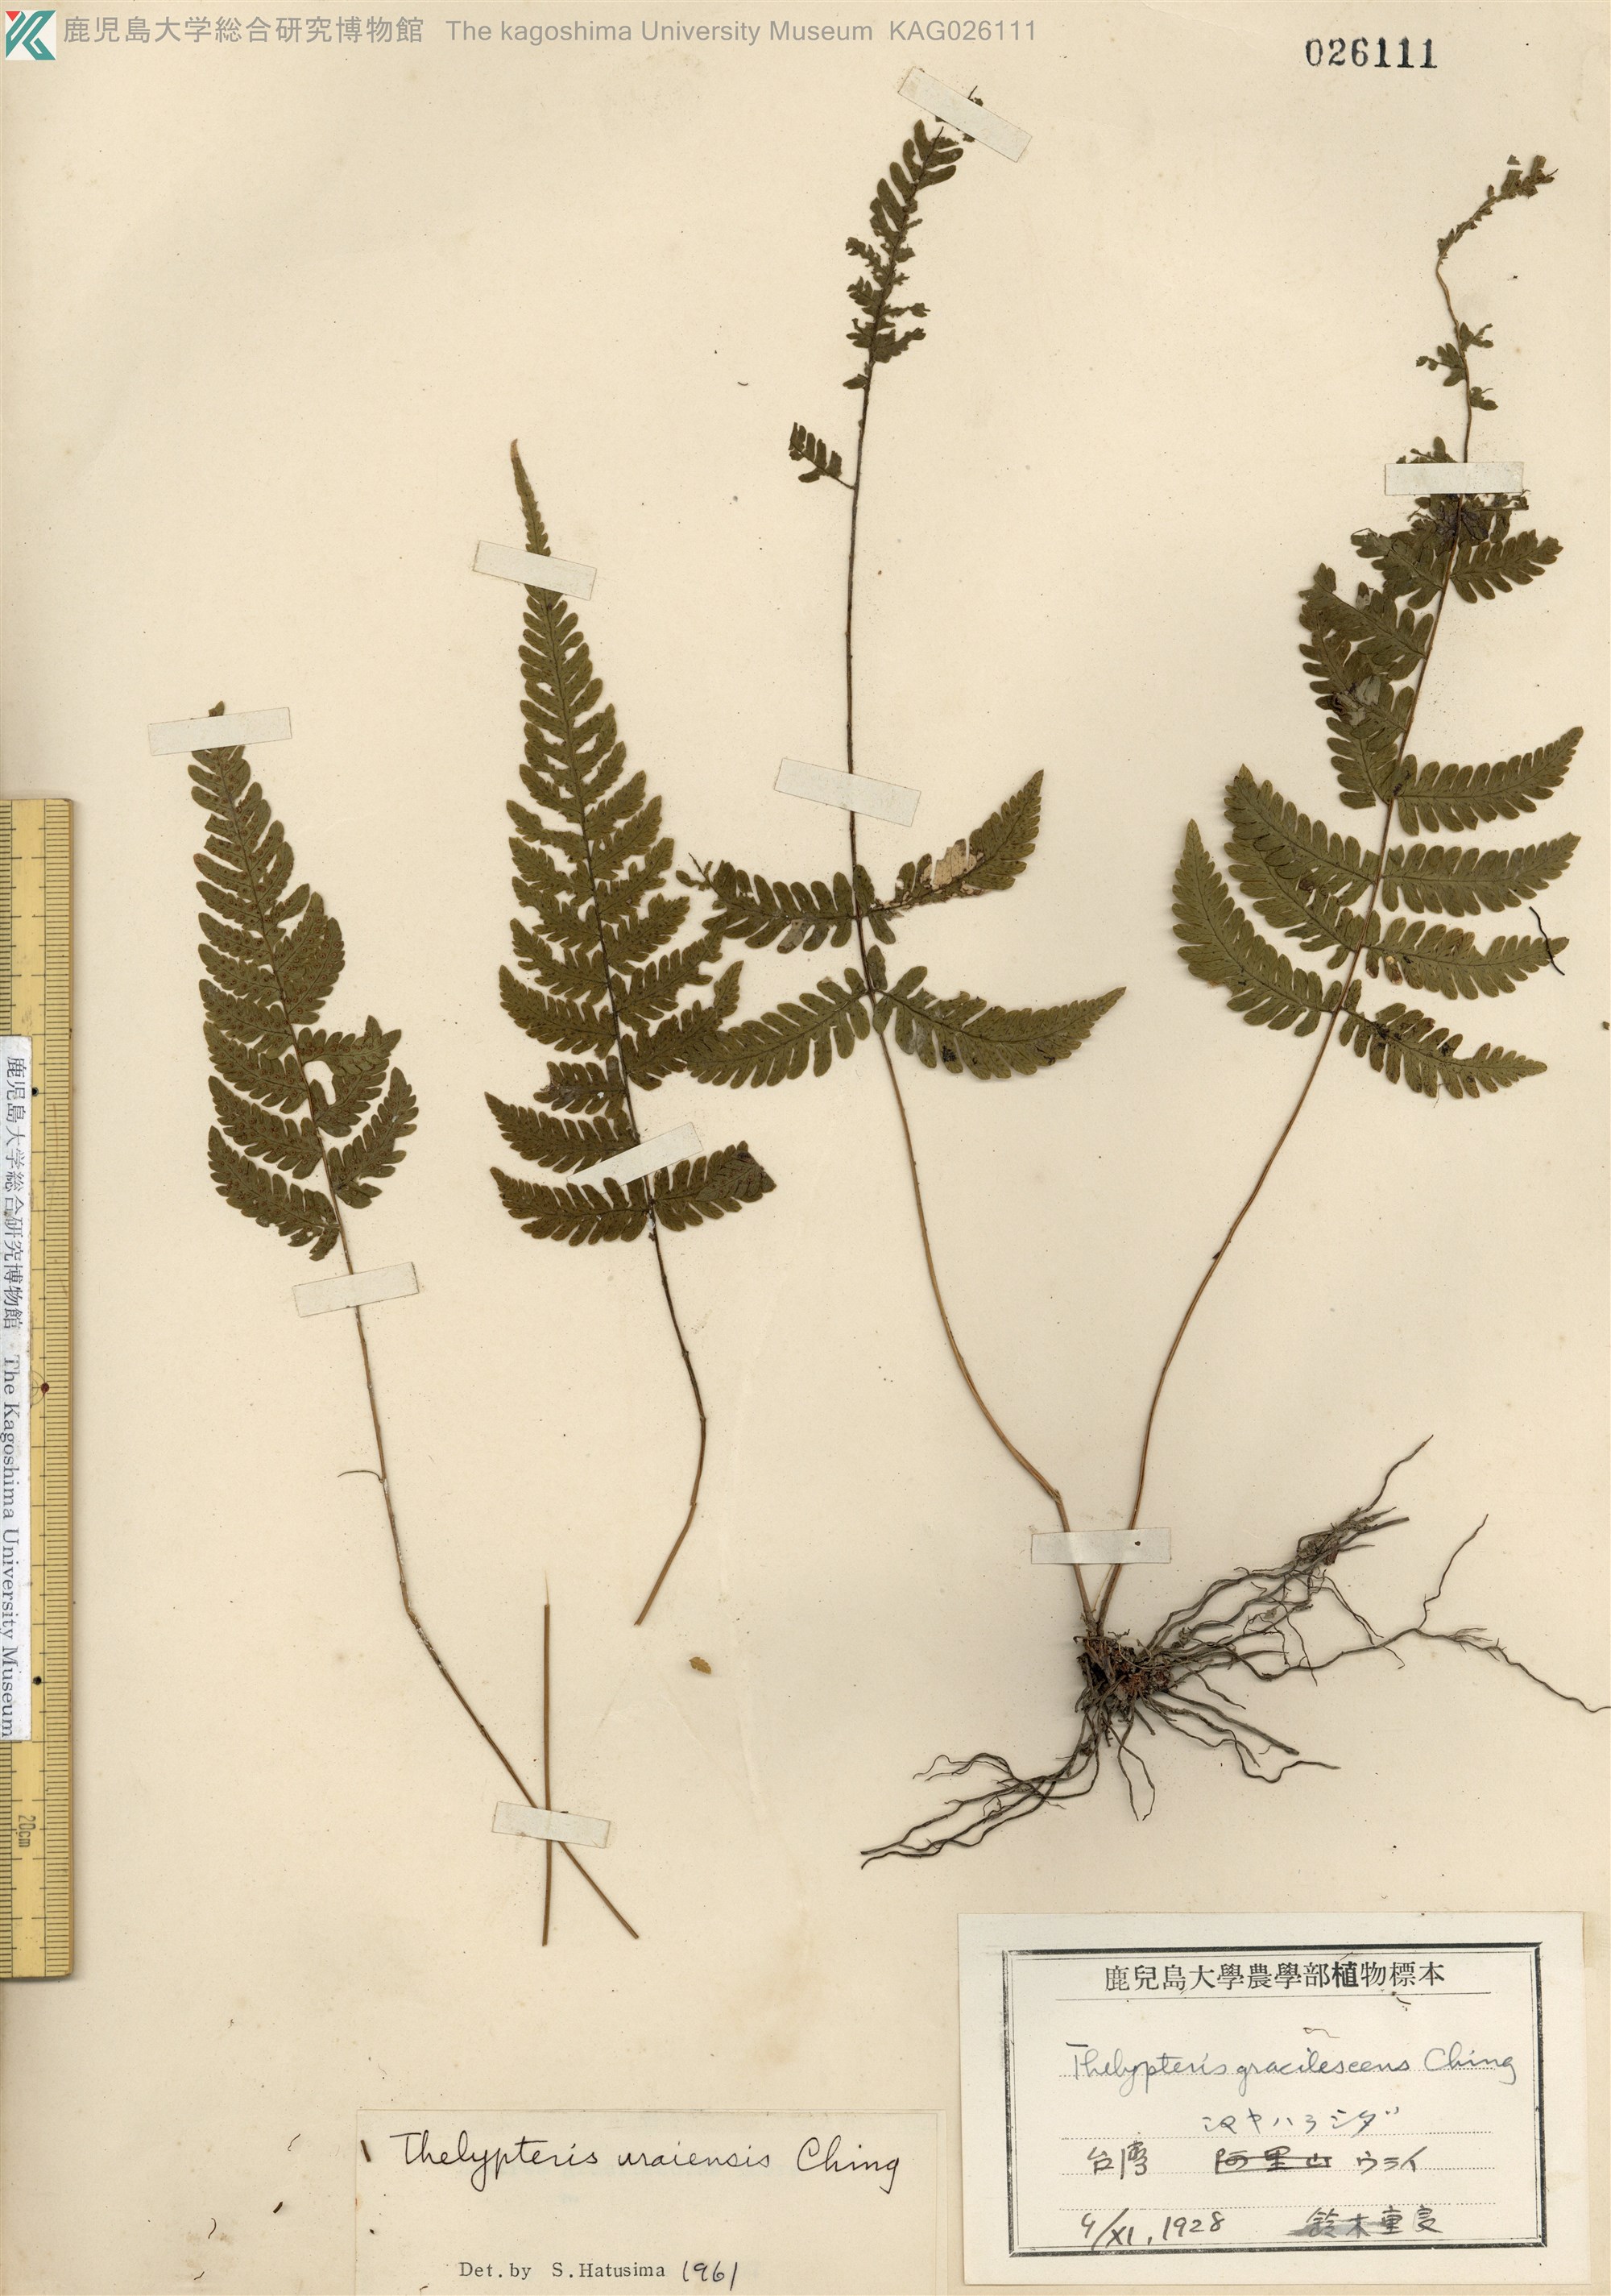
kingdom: Plantae
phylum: Tracheophyta
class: Polypodiopsida
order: Polypodiales
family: Thelypteridaceae
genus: Metathelypteris
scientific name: Metathelypteris uraiensis
